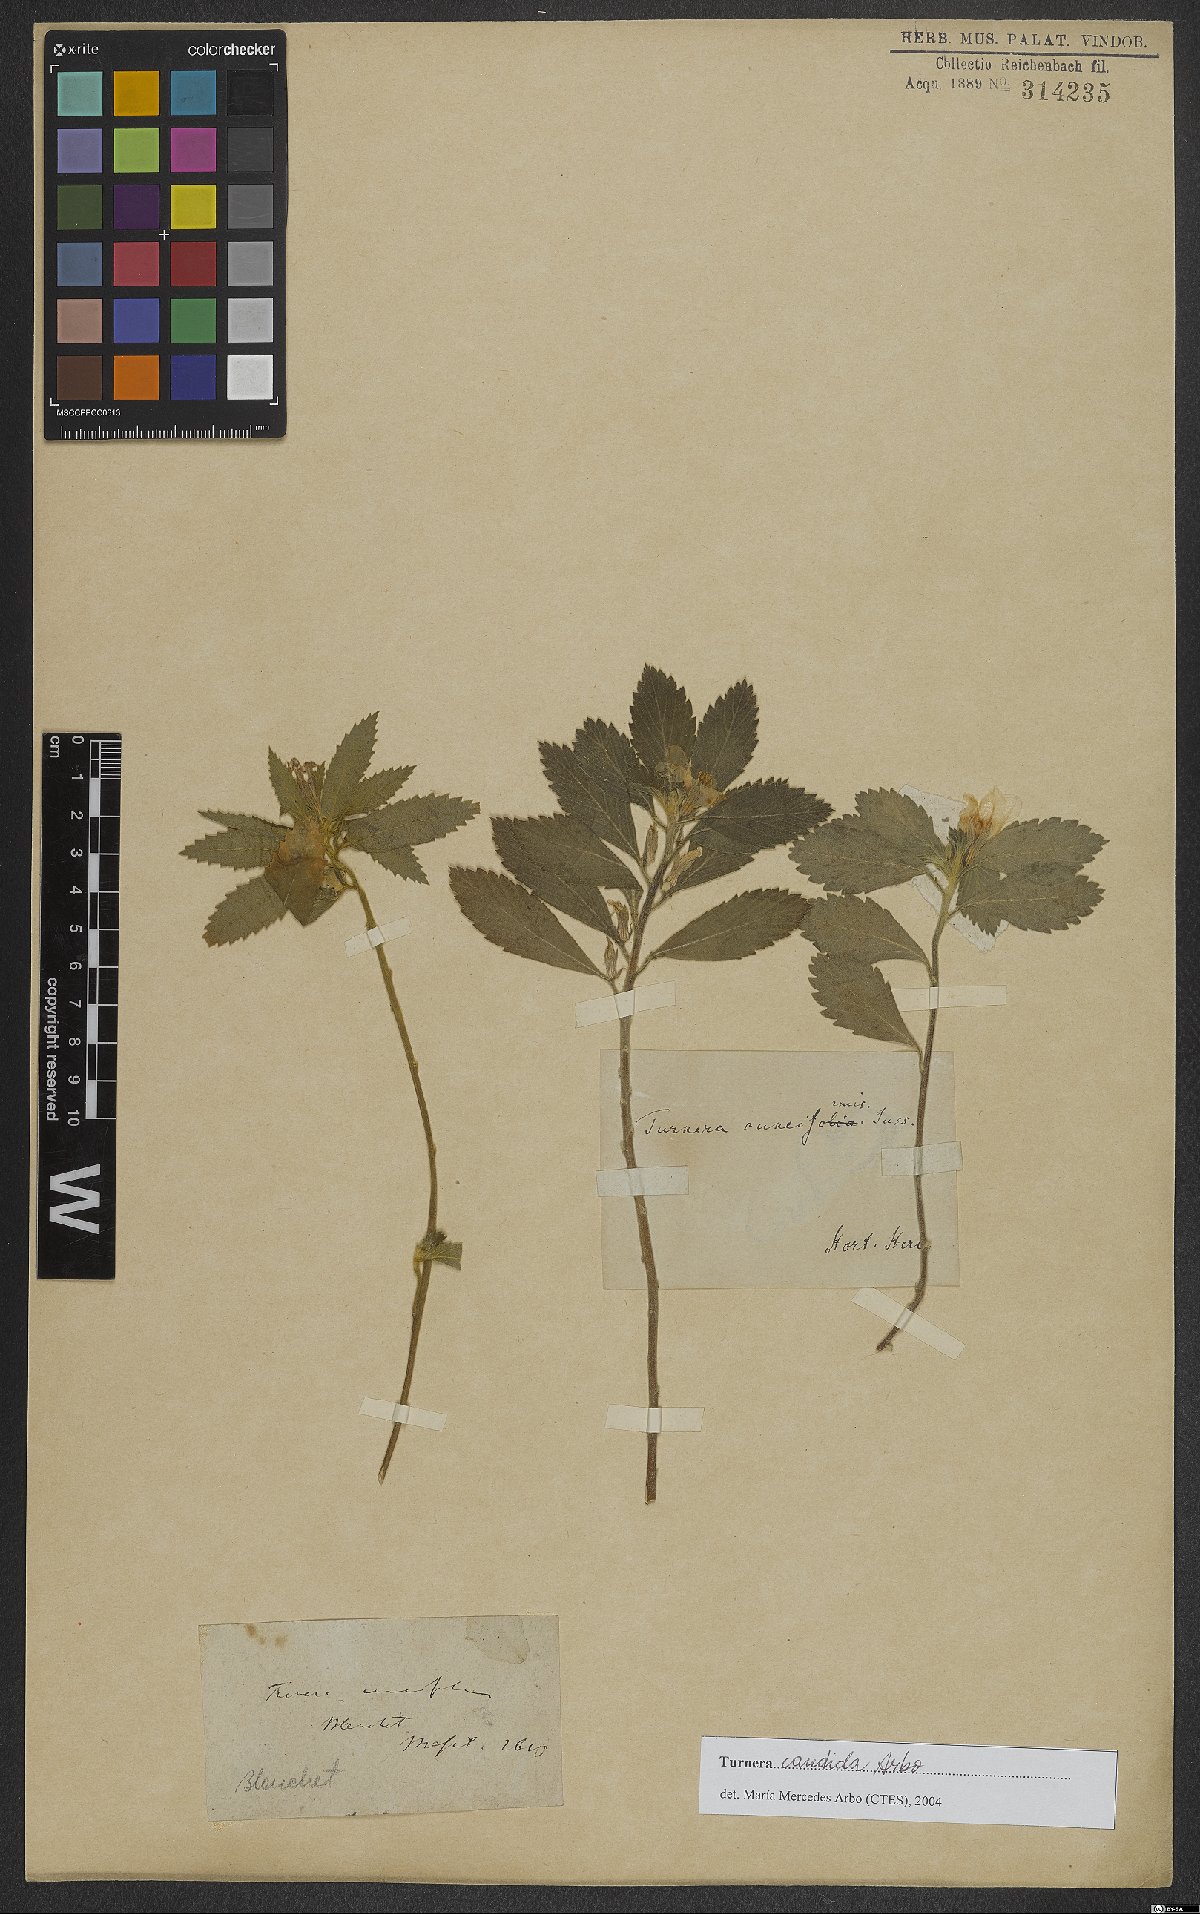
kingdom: Plantae
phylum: Tracheophyta
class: Magnoliopsida
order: Malpighiales
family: Turneraceae
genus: Turnera
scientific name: Turnera candida
